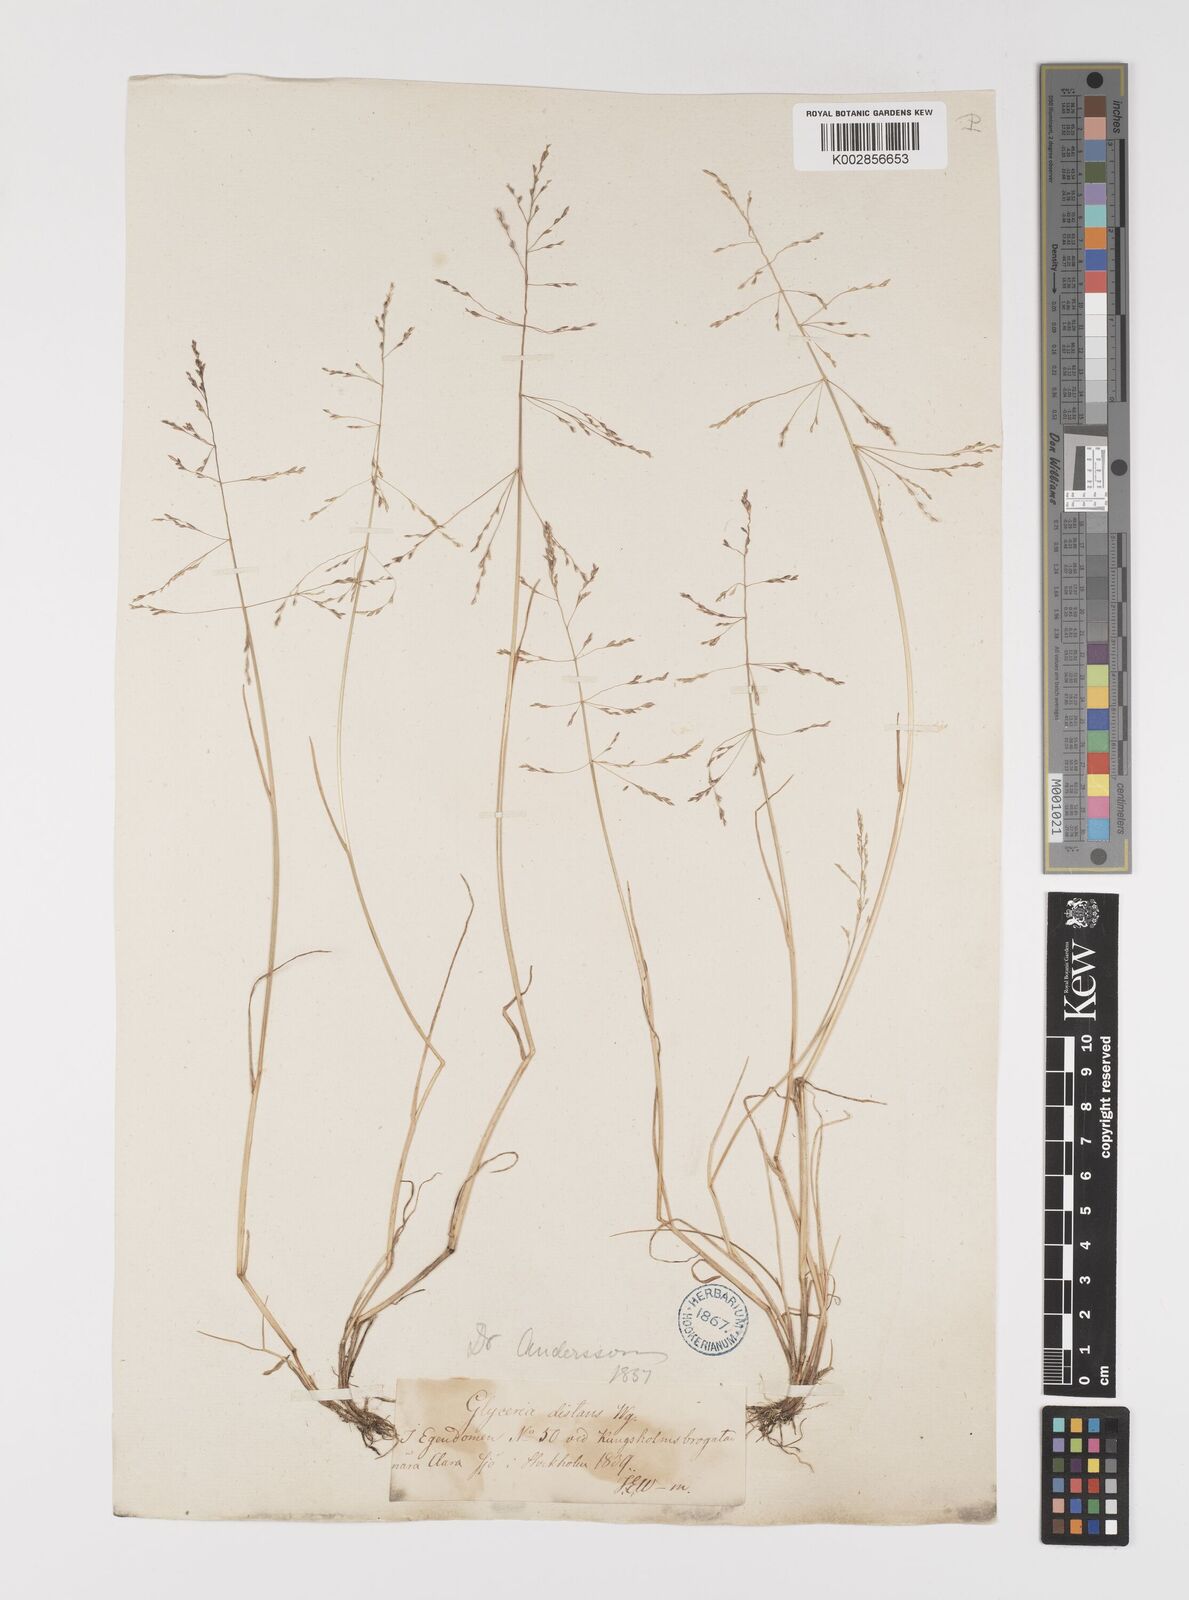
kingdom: Plantae
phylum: Tracheophyta
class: Liliopsida
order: Poales
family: Poaceae
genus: Puccinellia
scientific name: Puccinellia
